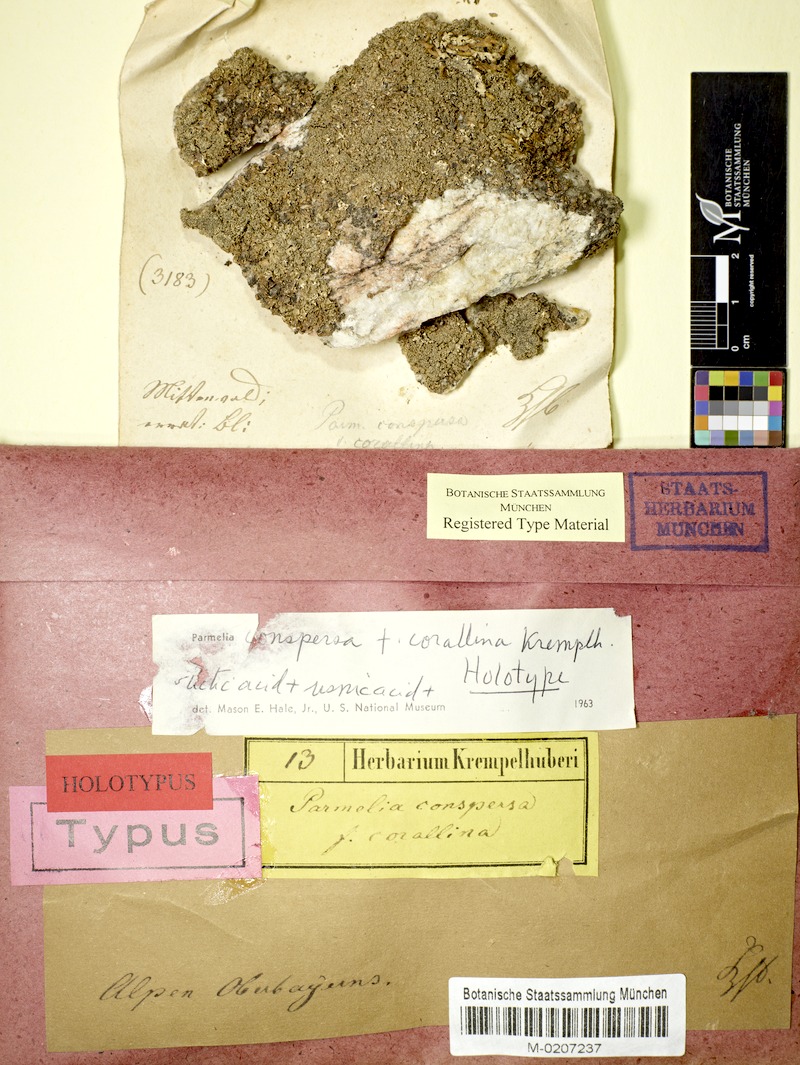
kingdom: Fungi
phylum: Ascomycota
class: Lecanoromycetes
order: Lecanorales
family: Parmeliaceae
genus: Xanthoparmelia
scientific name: Xanthoparmelia conspersa
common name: Peppered rock shield
